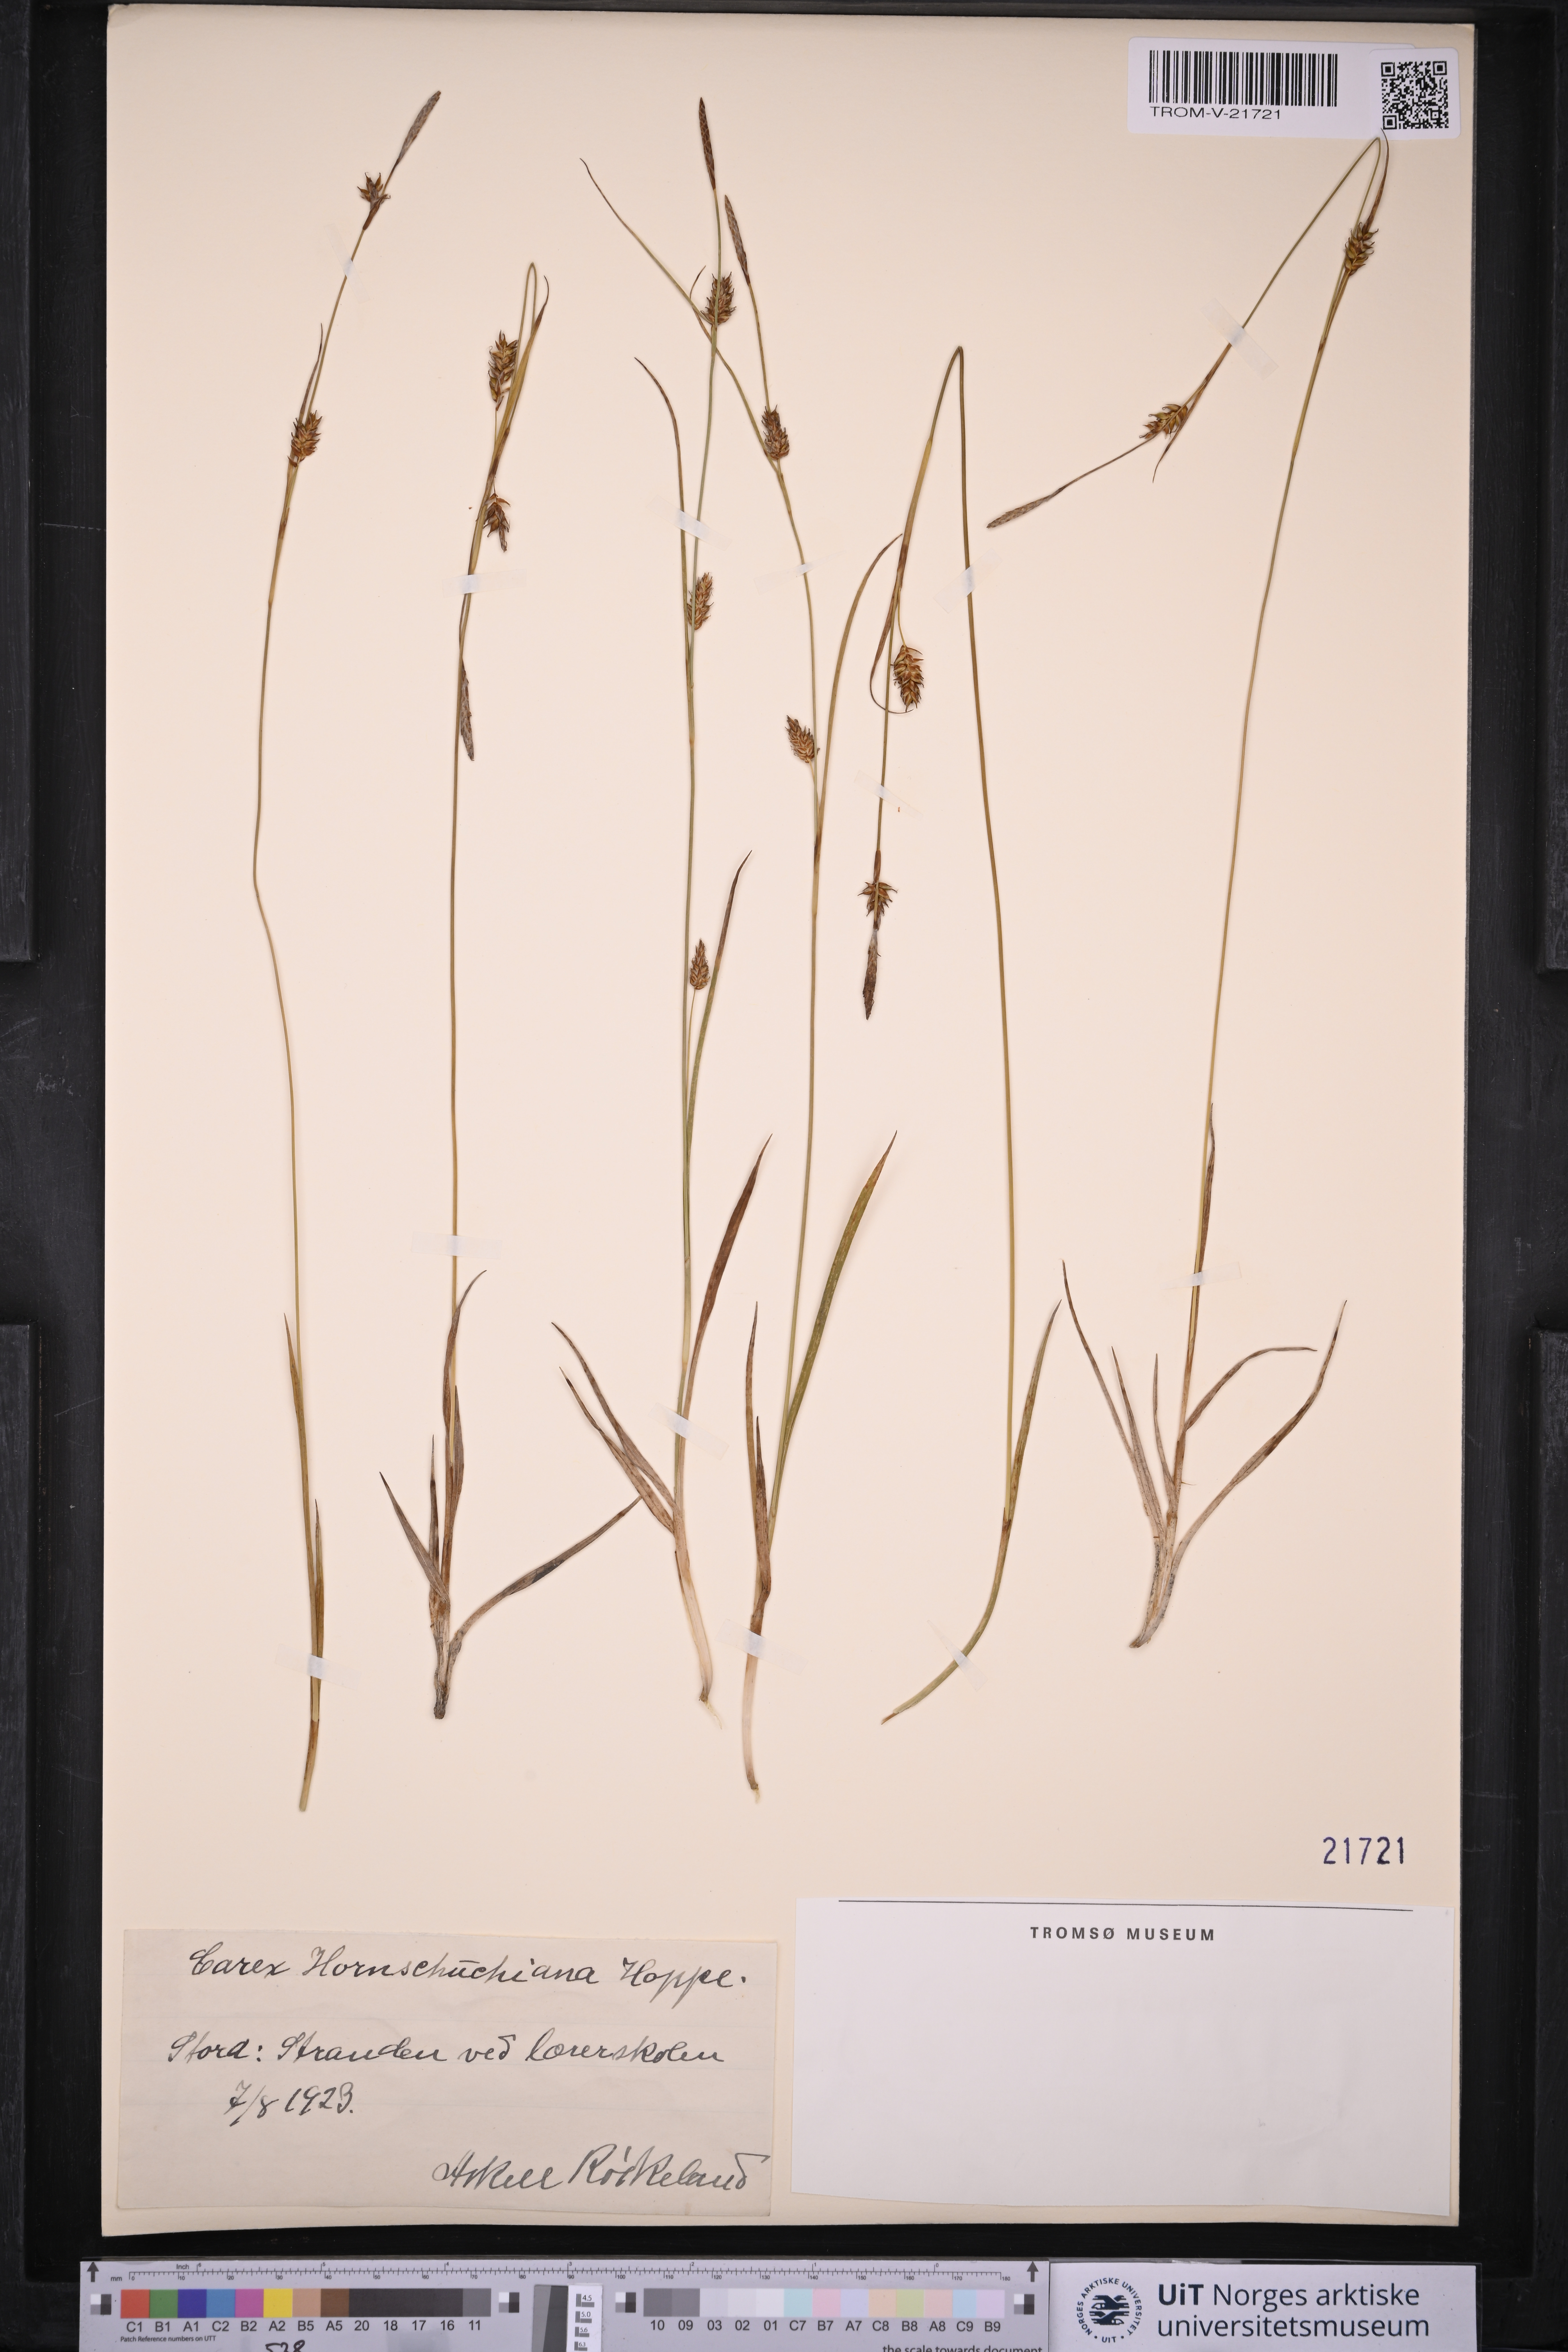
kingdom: Plantae
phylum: Tracheophyta
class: Liliopsida
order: Poales
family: Cyperaceae
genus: Carex
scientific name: Carex hostiana
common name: Tawny sedge
